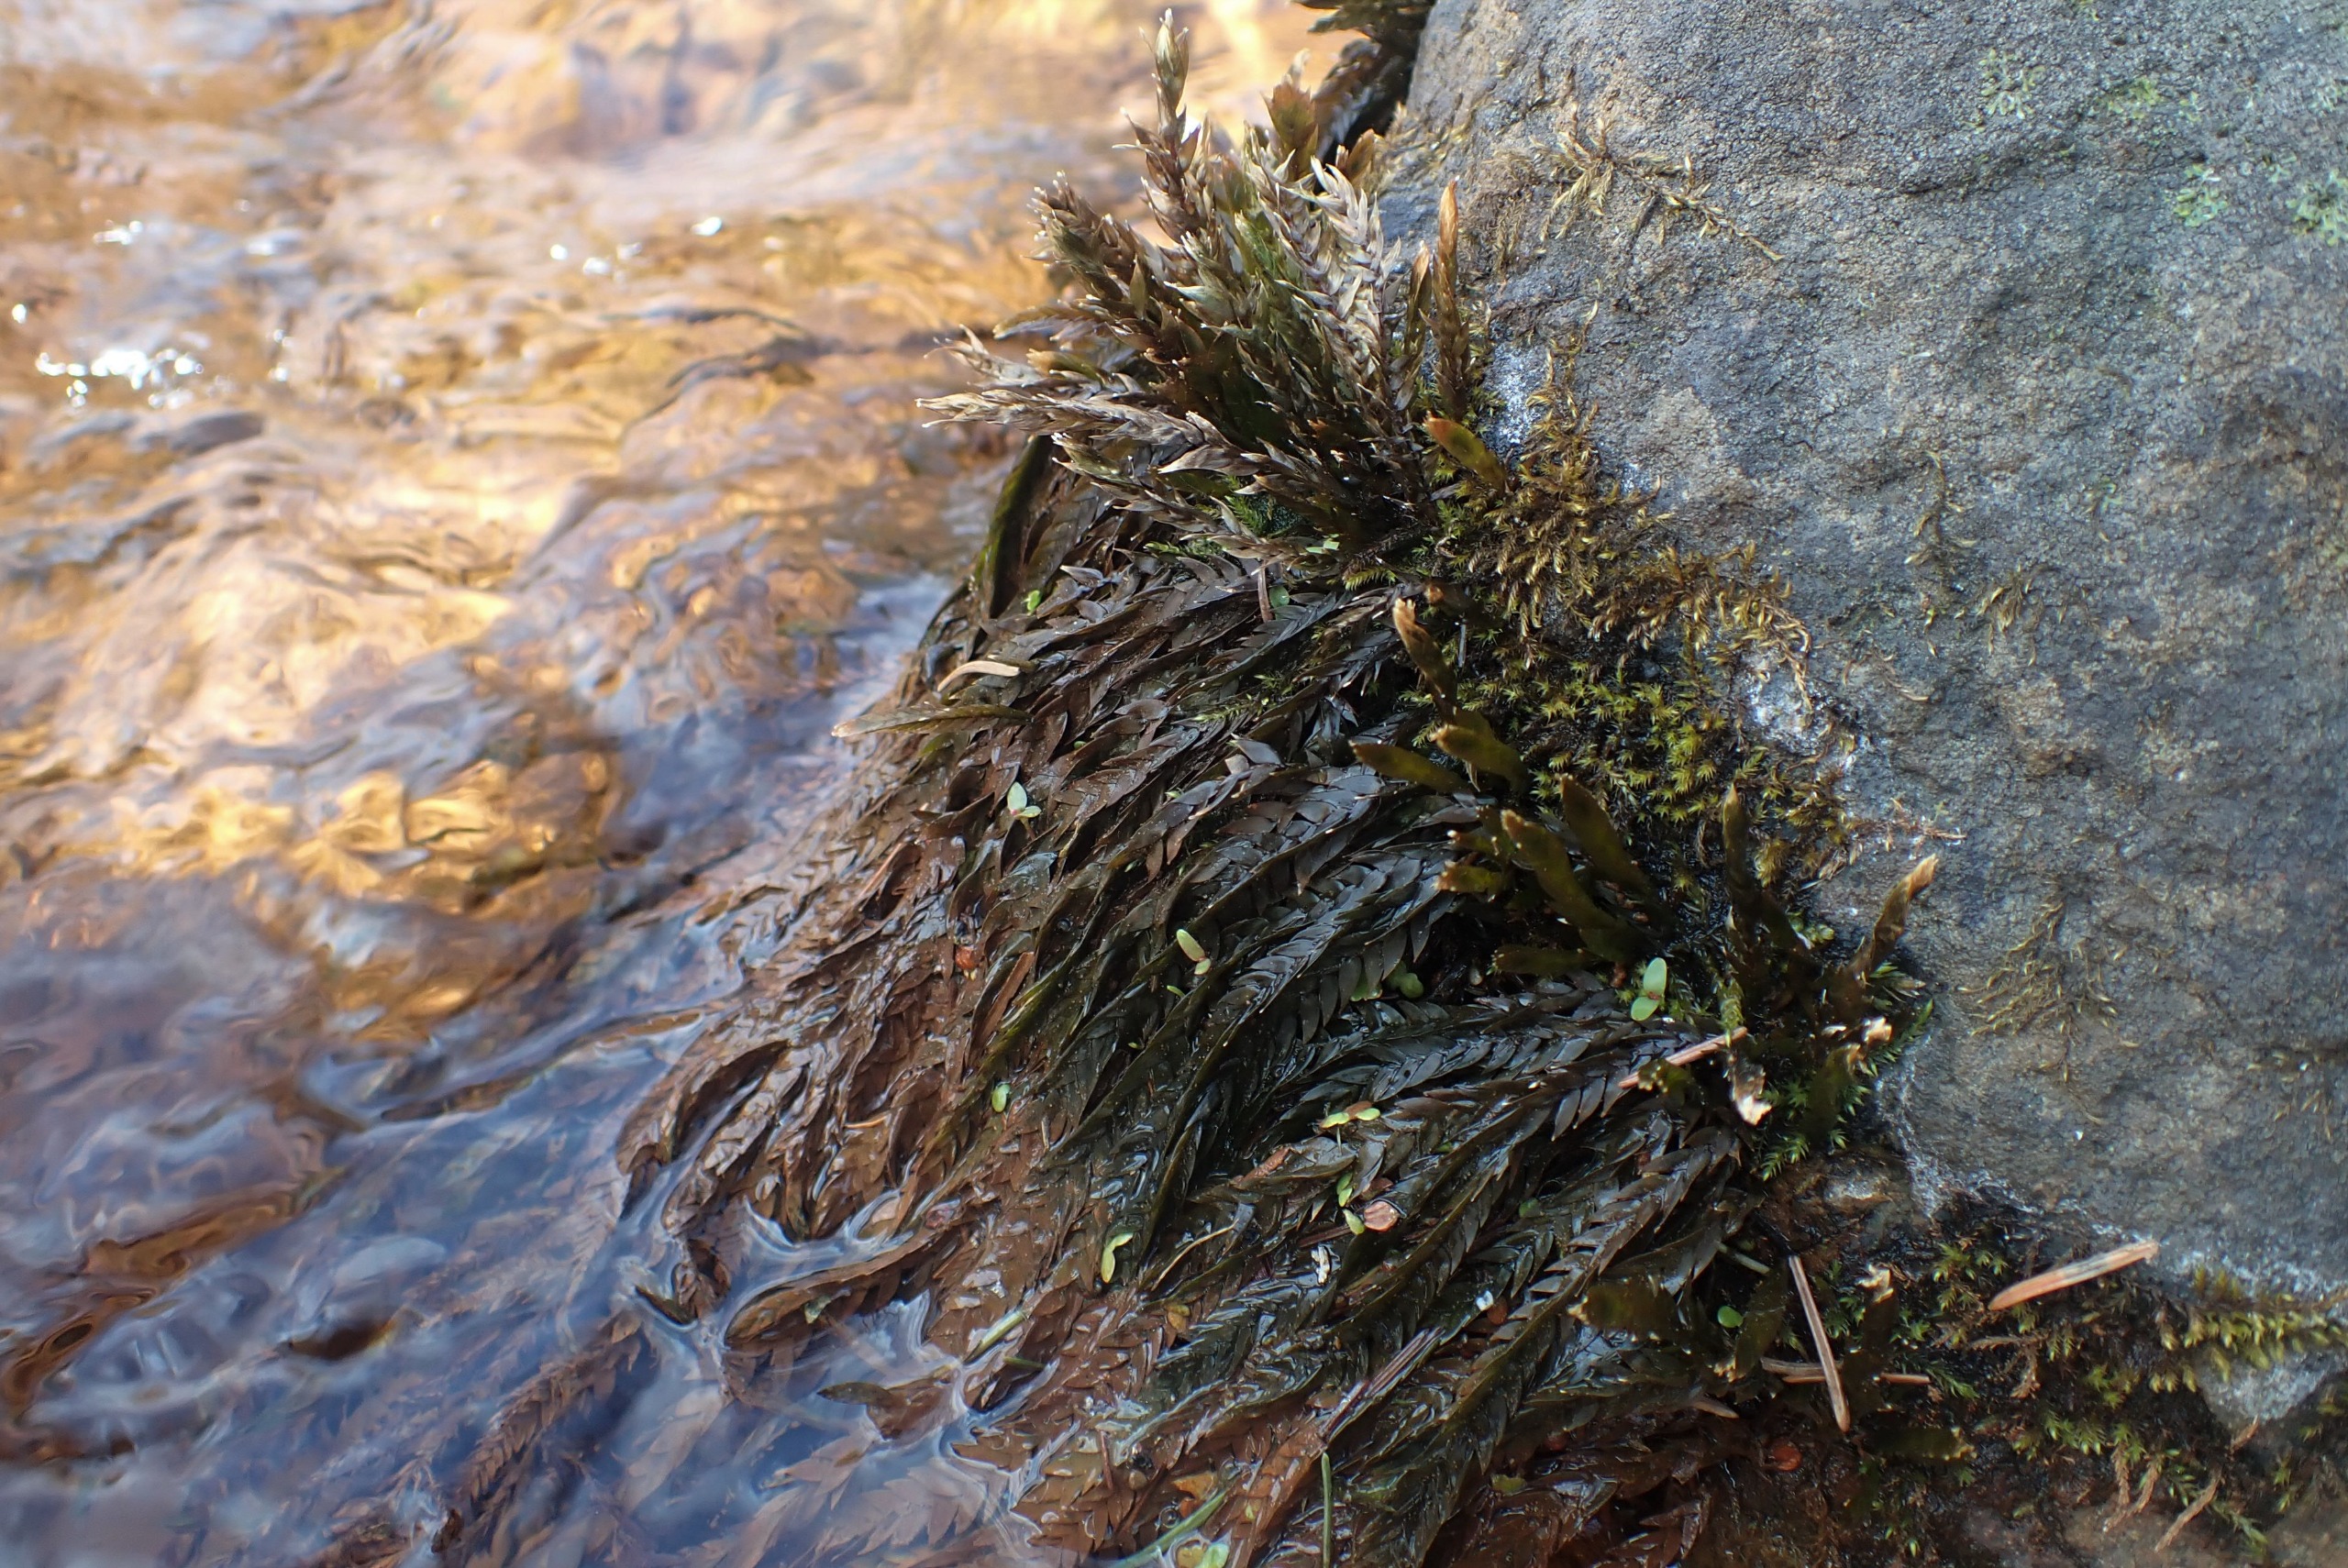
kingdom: Plantae
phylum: Bryophyta
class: Bryopsida
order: Hypnales
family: Fontinalaceae
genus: Fontinalis
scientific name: Fontinalis antipyretica
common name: Stor kildemos
